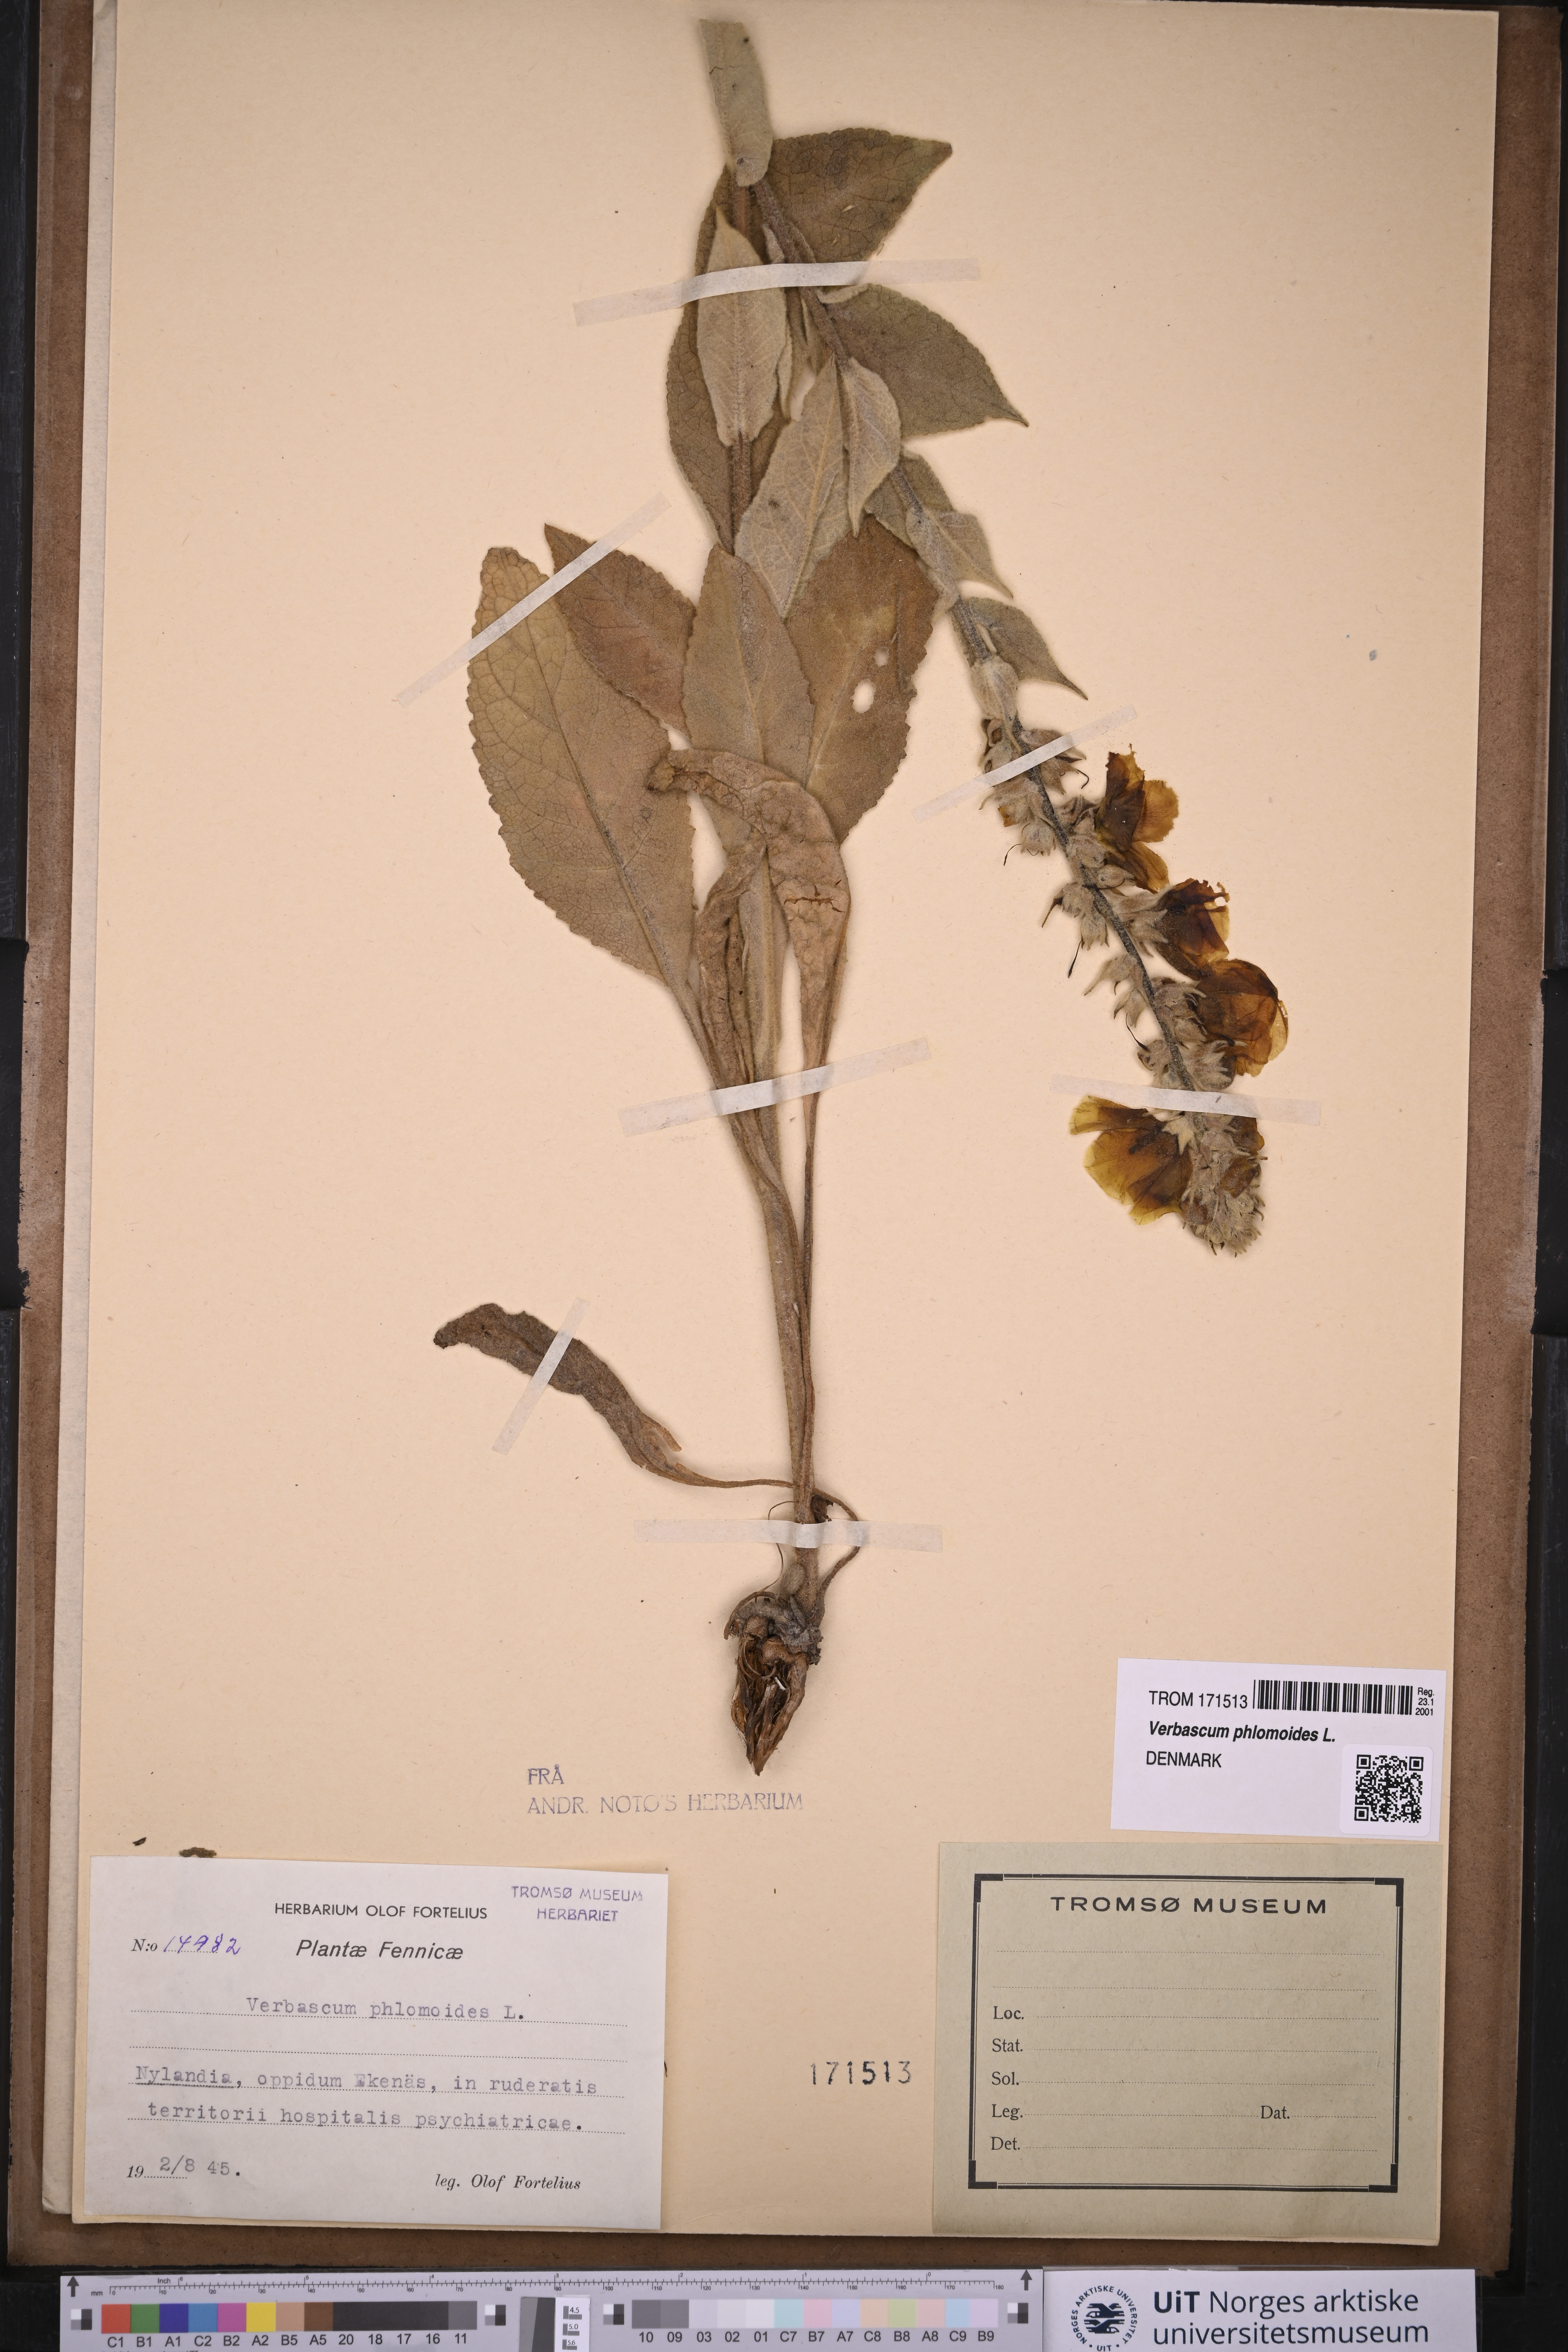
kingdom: Plantae
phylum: Tracheophyta
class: Magnoliopsida
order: Lamiales
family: Scrophulariaceae
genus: Verbascum
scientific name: Verbascum phlomoides
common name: Orange mullein
